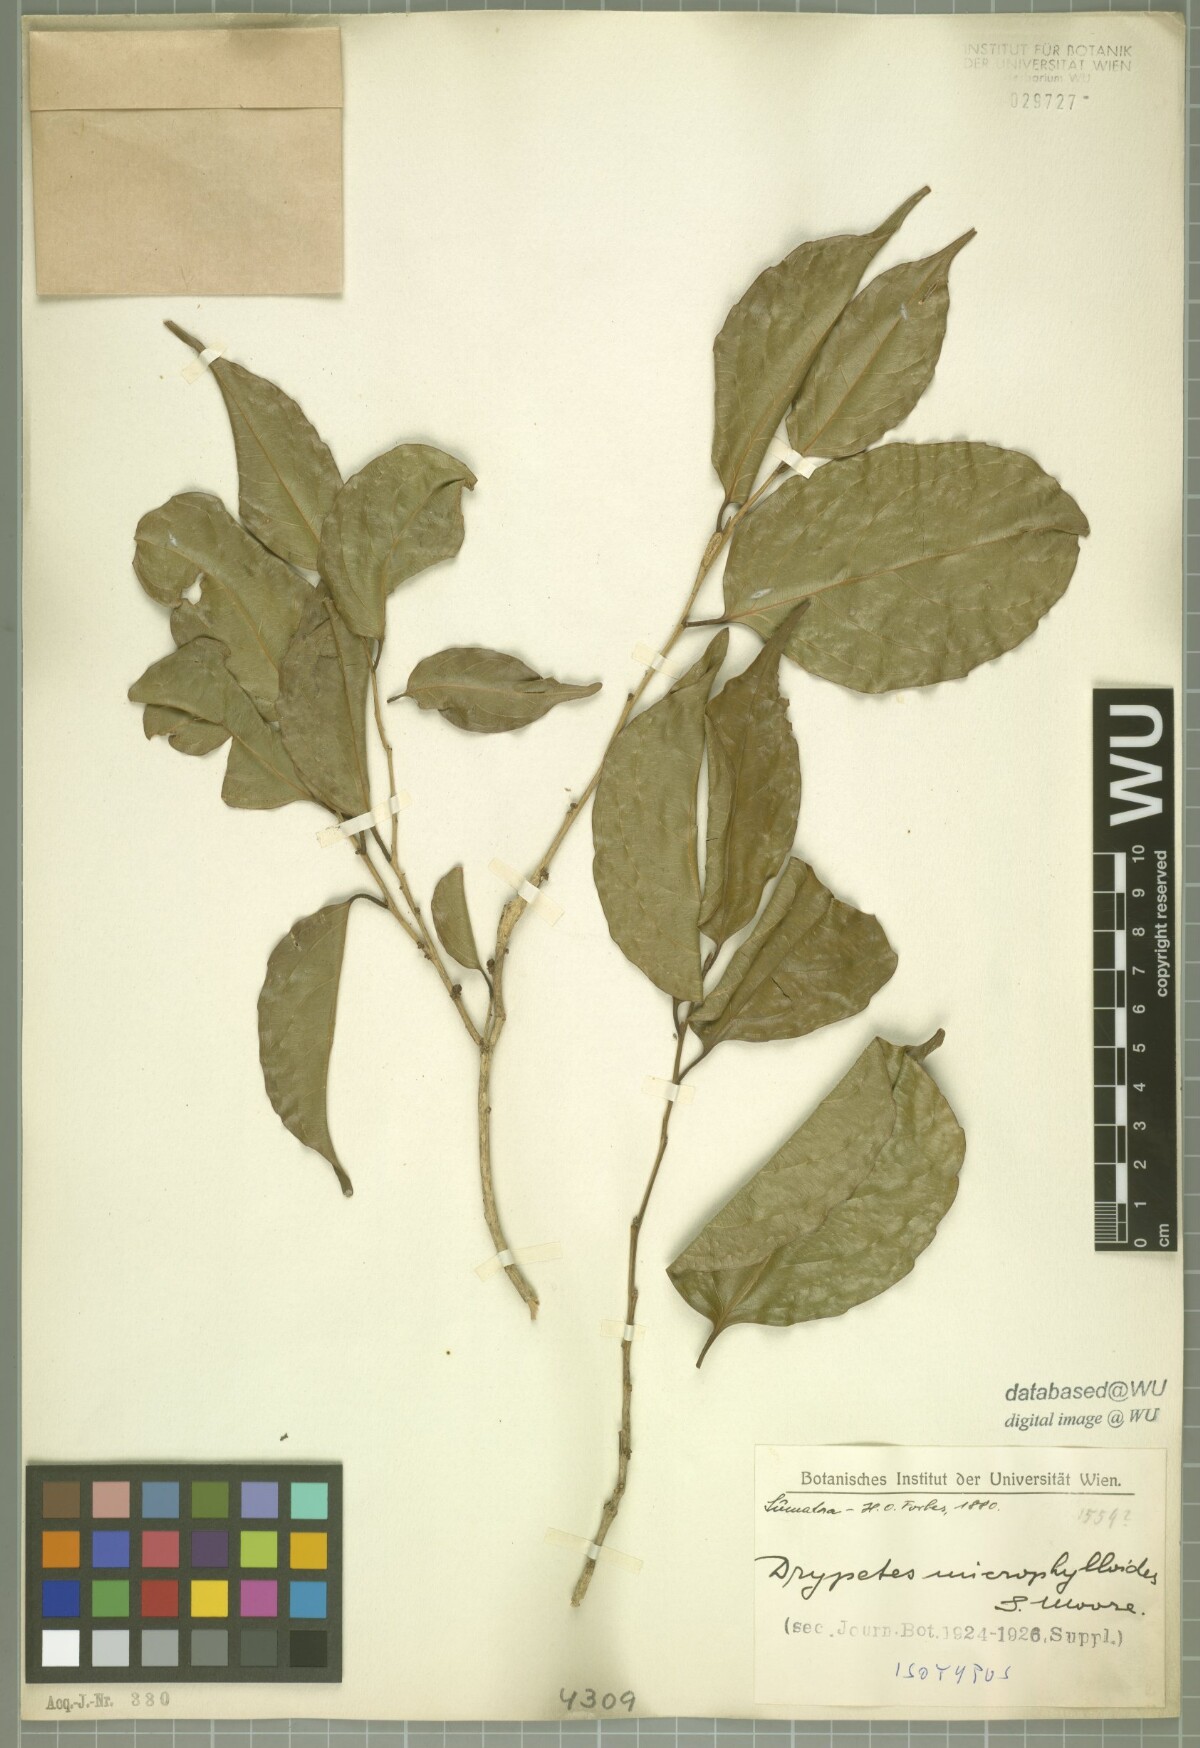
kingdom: Plantae
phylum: Tracheophyta
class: Magnoliopsida
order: Malpighiales
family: Putranjivaceae
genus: Drypetes
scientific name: Drypetes microphylloides
